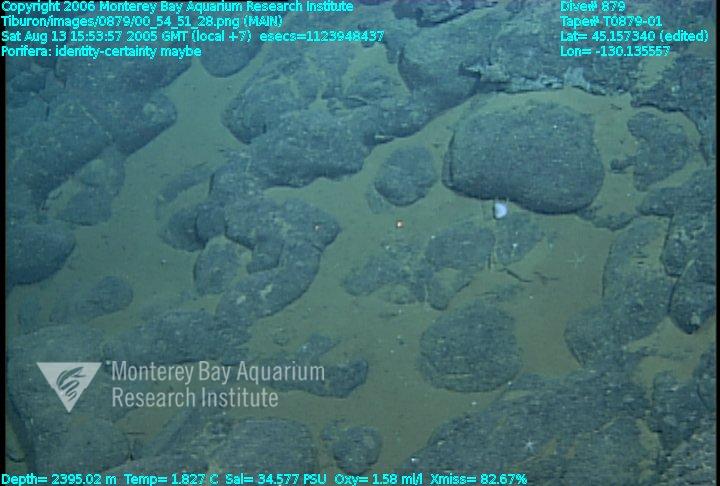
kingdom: Animalia
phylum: Porifera
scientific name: Porifera
